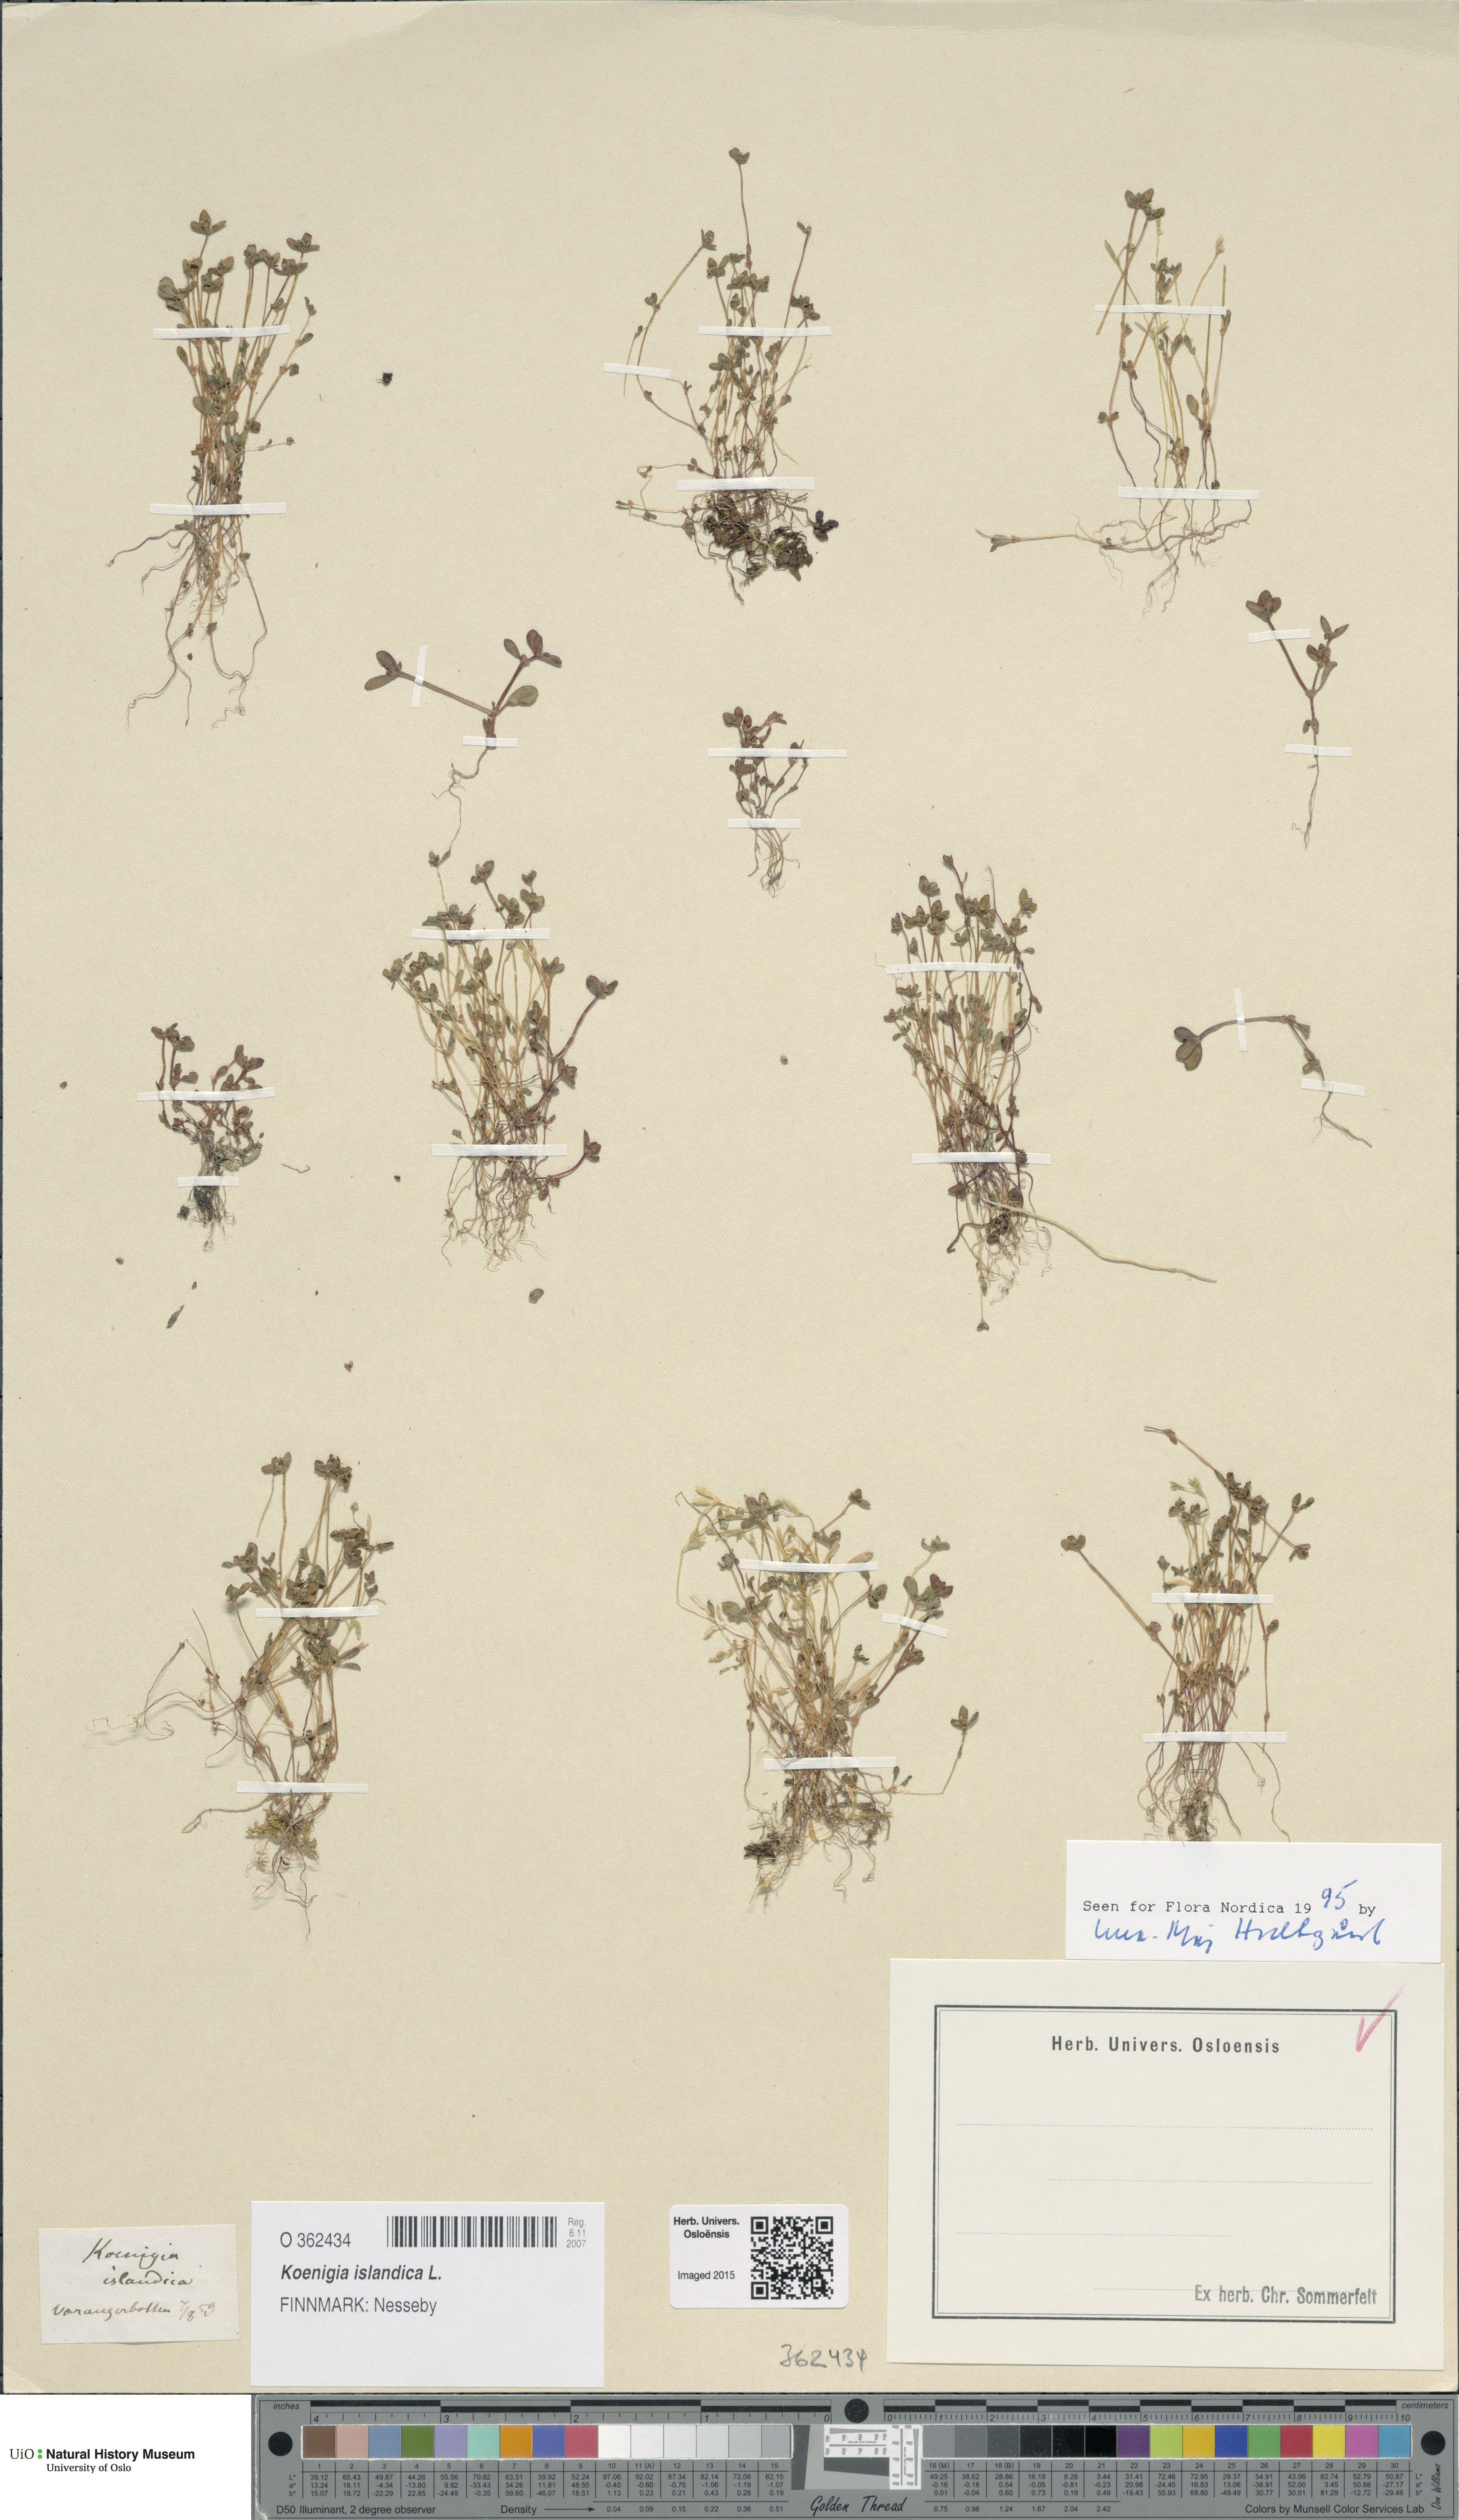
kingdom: Plantae
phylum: Tracheophyta
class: Magnoliopsida
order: Caryophyllales
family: Polygonaceae
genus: Koenigia
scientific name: Koenigia islandica
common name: Iceland-purslane
